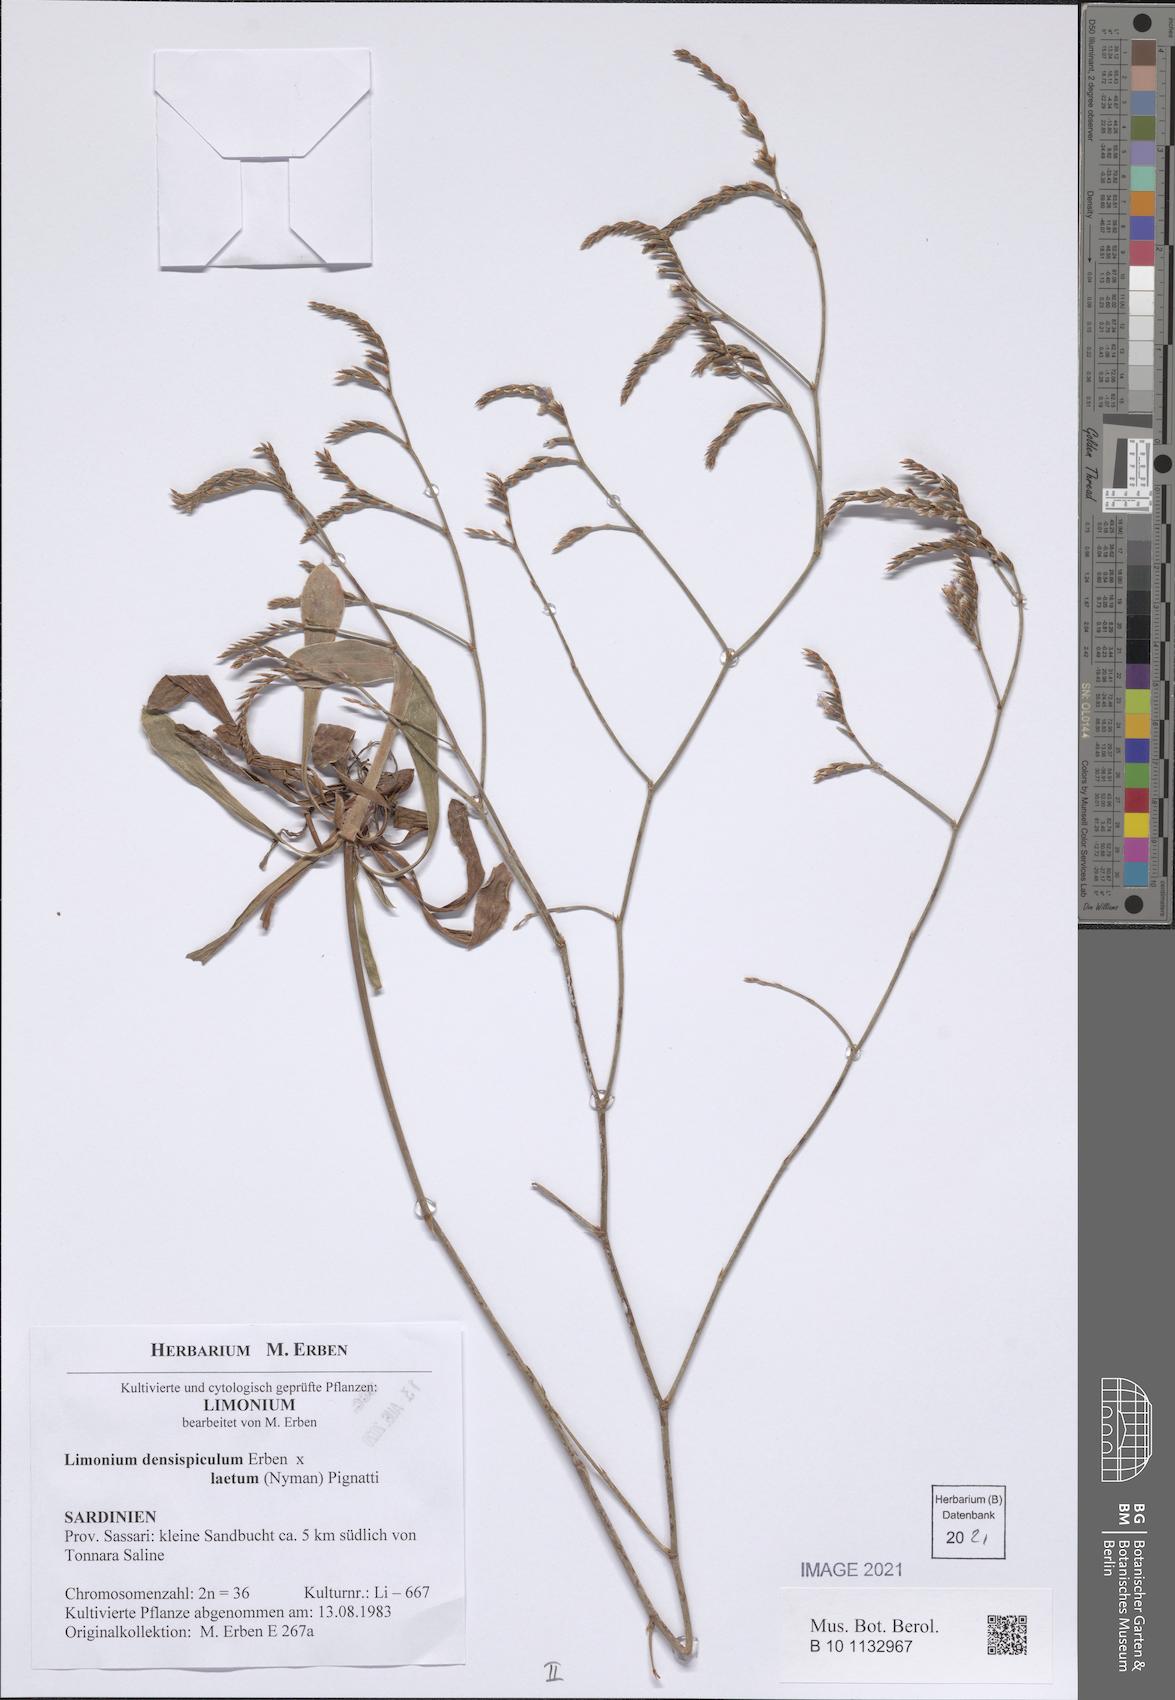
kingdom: Plantae
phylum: Tracheophyta
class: Magnoliopsida
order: Caryophyllales
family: Plumbaginaceae
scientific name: Plumbaginaceae
